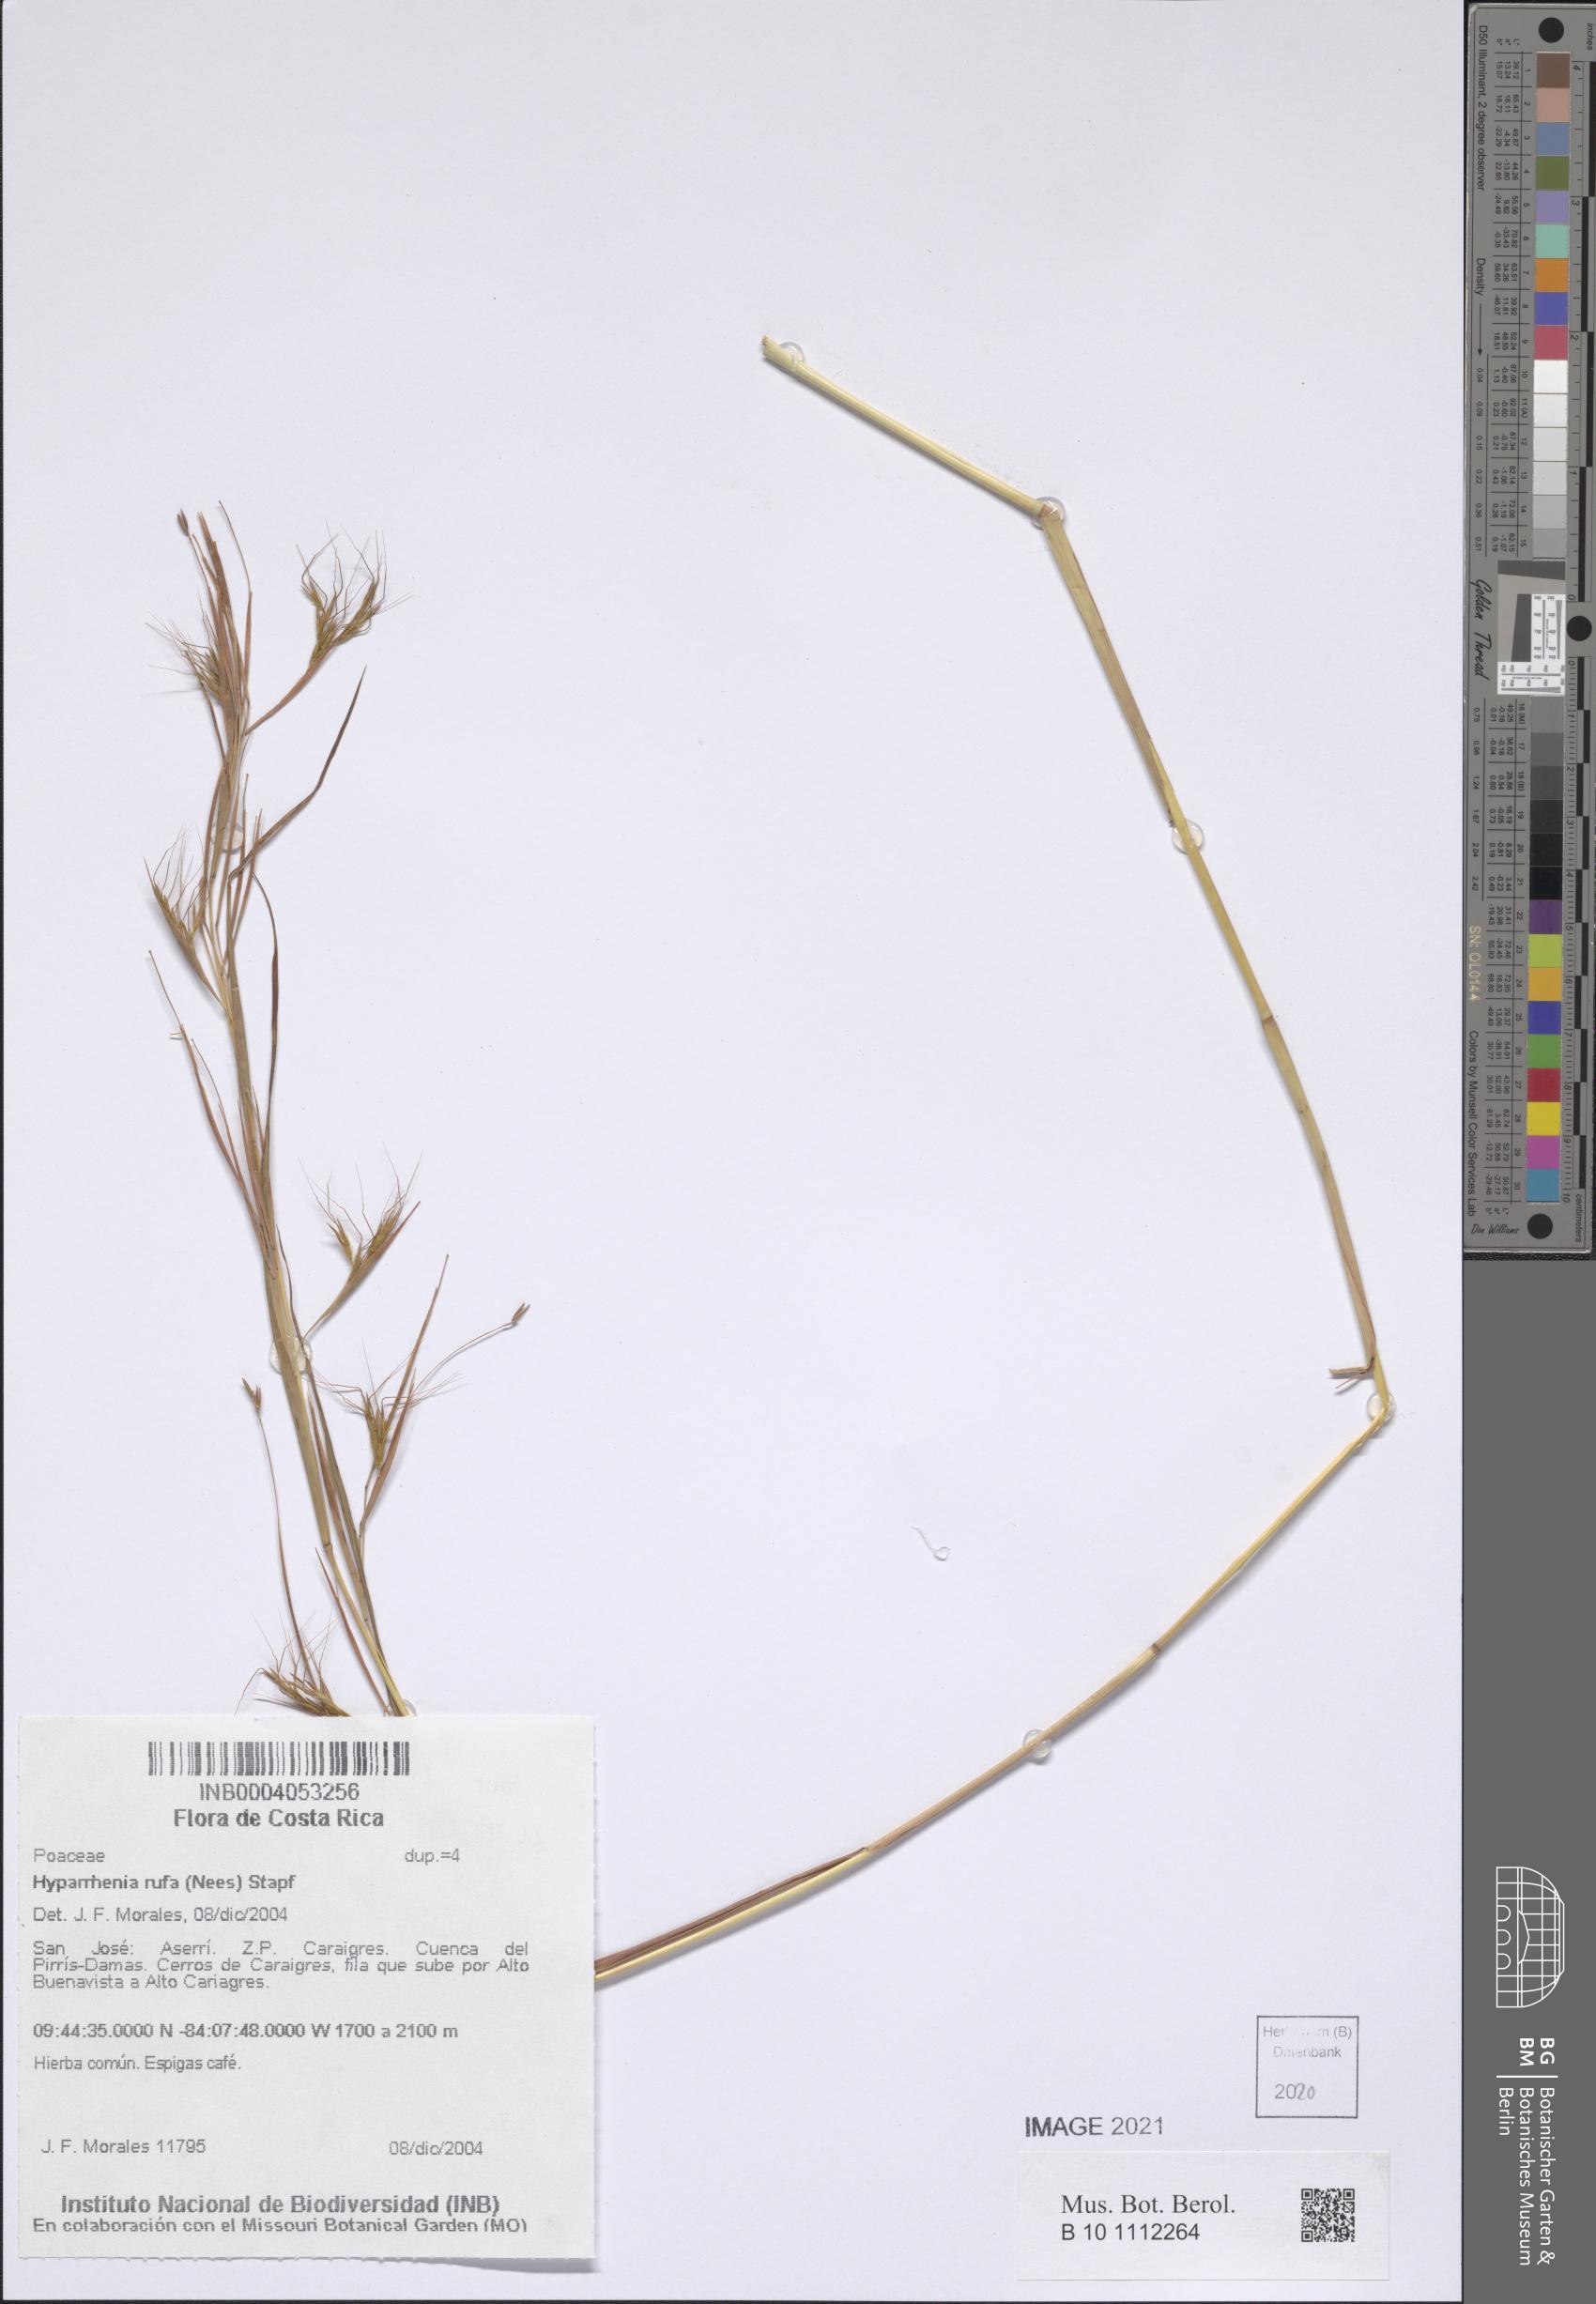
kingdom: Plantae
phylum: Tracheophyta
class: Liliopsida
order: Poales
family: Poaceae
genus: Hyparrhenia
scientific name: Hyparrhenia rufa
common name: Jaraguagrass
